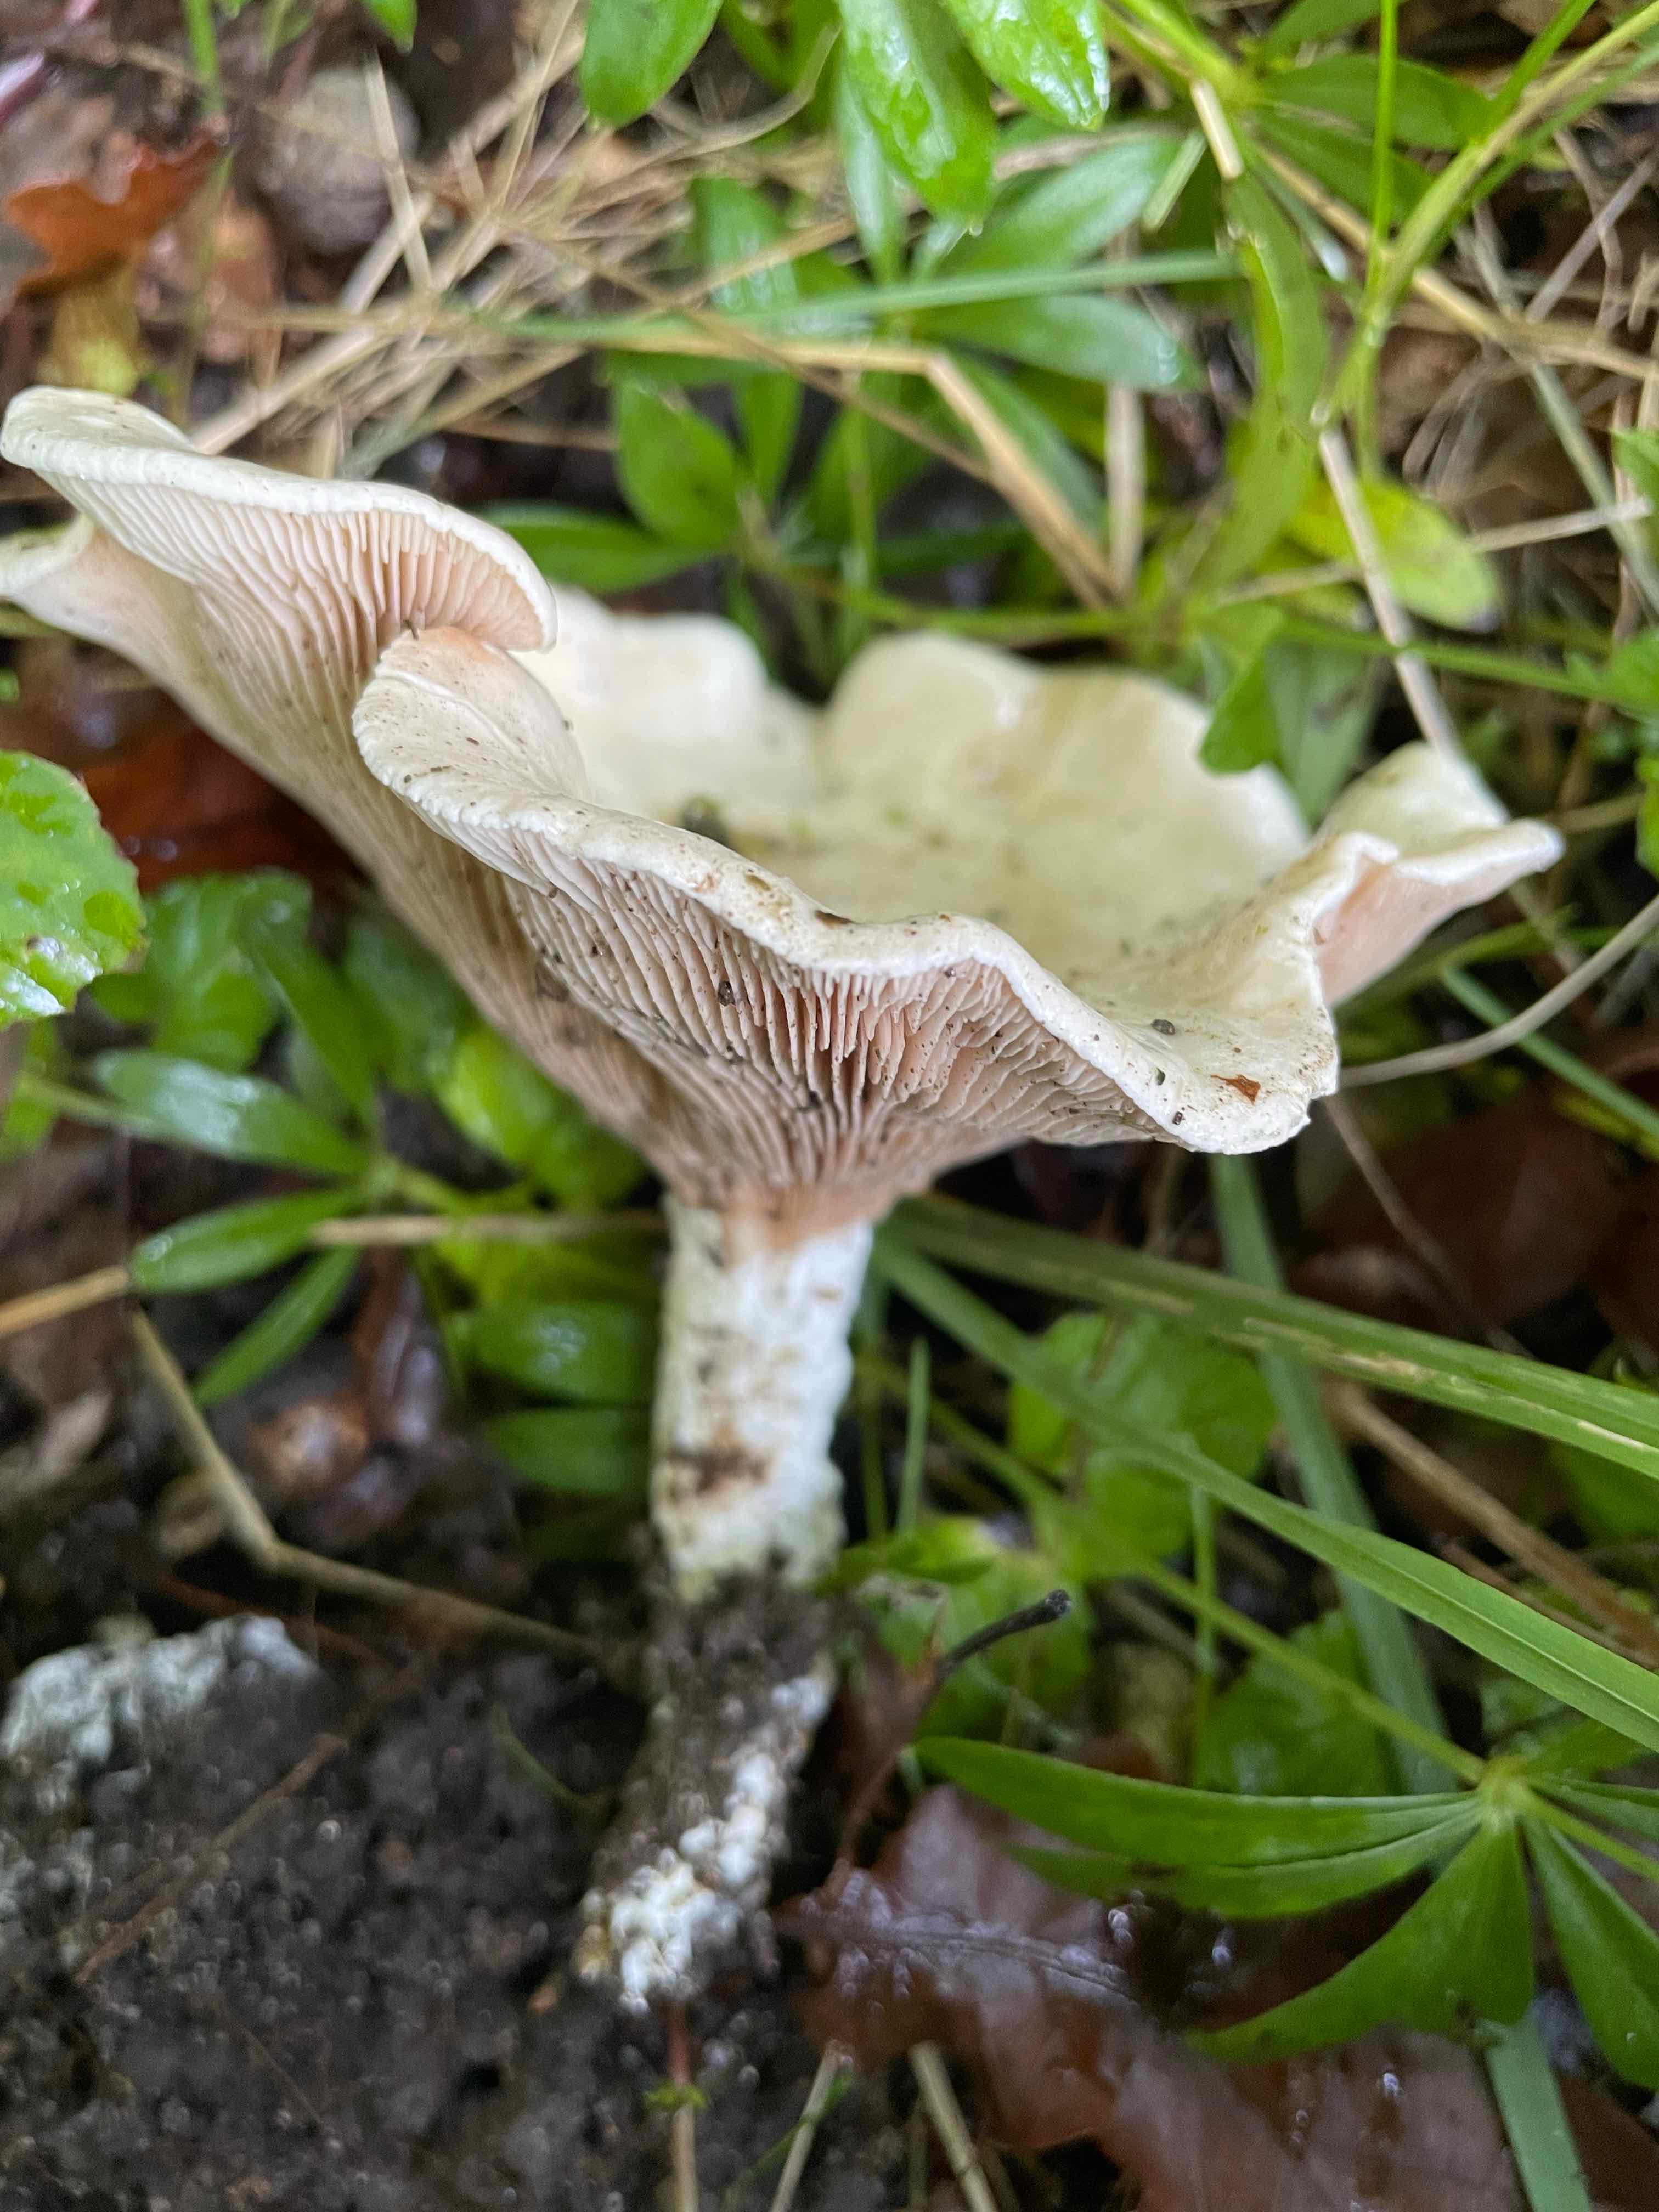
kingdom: Fungi
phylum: Basidiomycota
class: Agaricomycetes
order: Agaricales
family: Entolomataceae
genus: Clitopilus
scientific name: Clitopilus prunulus
